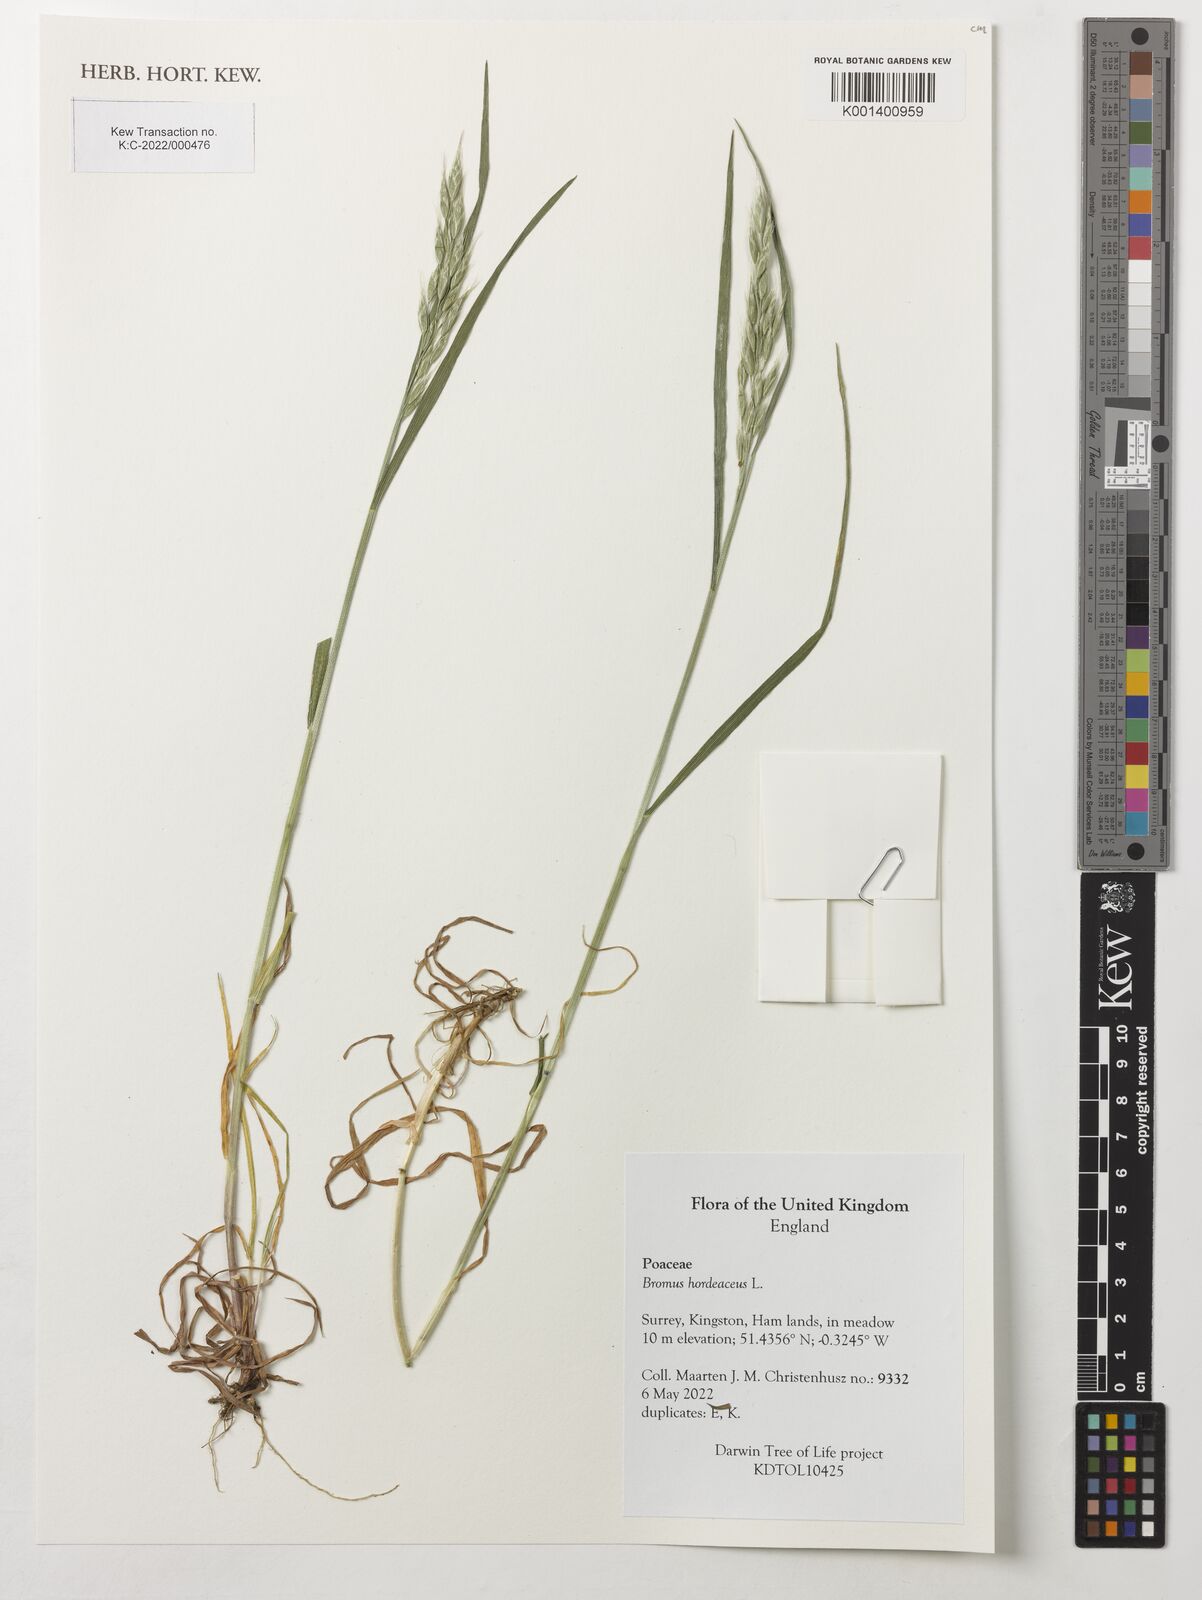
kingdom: Plantae
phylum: Tracheophyta
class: Liliopsida
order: Poales
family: Poaceae
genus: Bromus
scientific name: Bromus hordeaceus
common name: Soft brome
